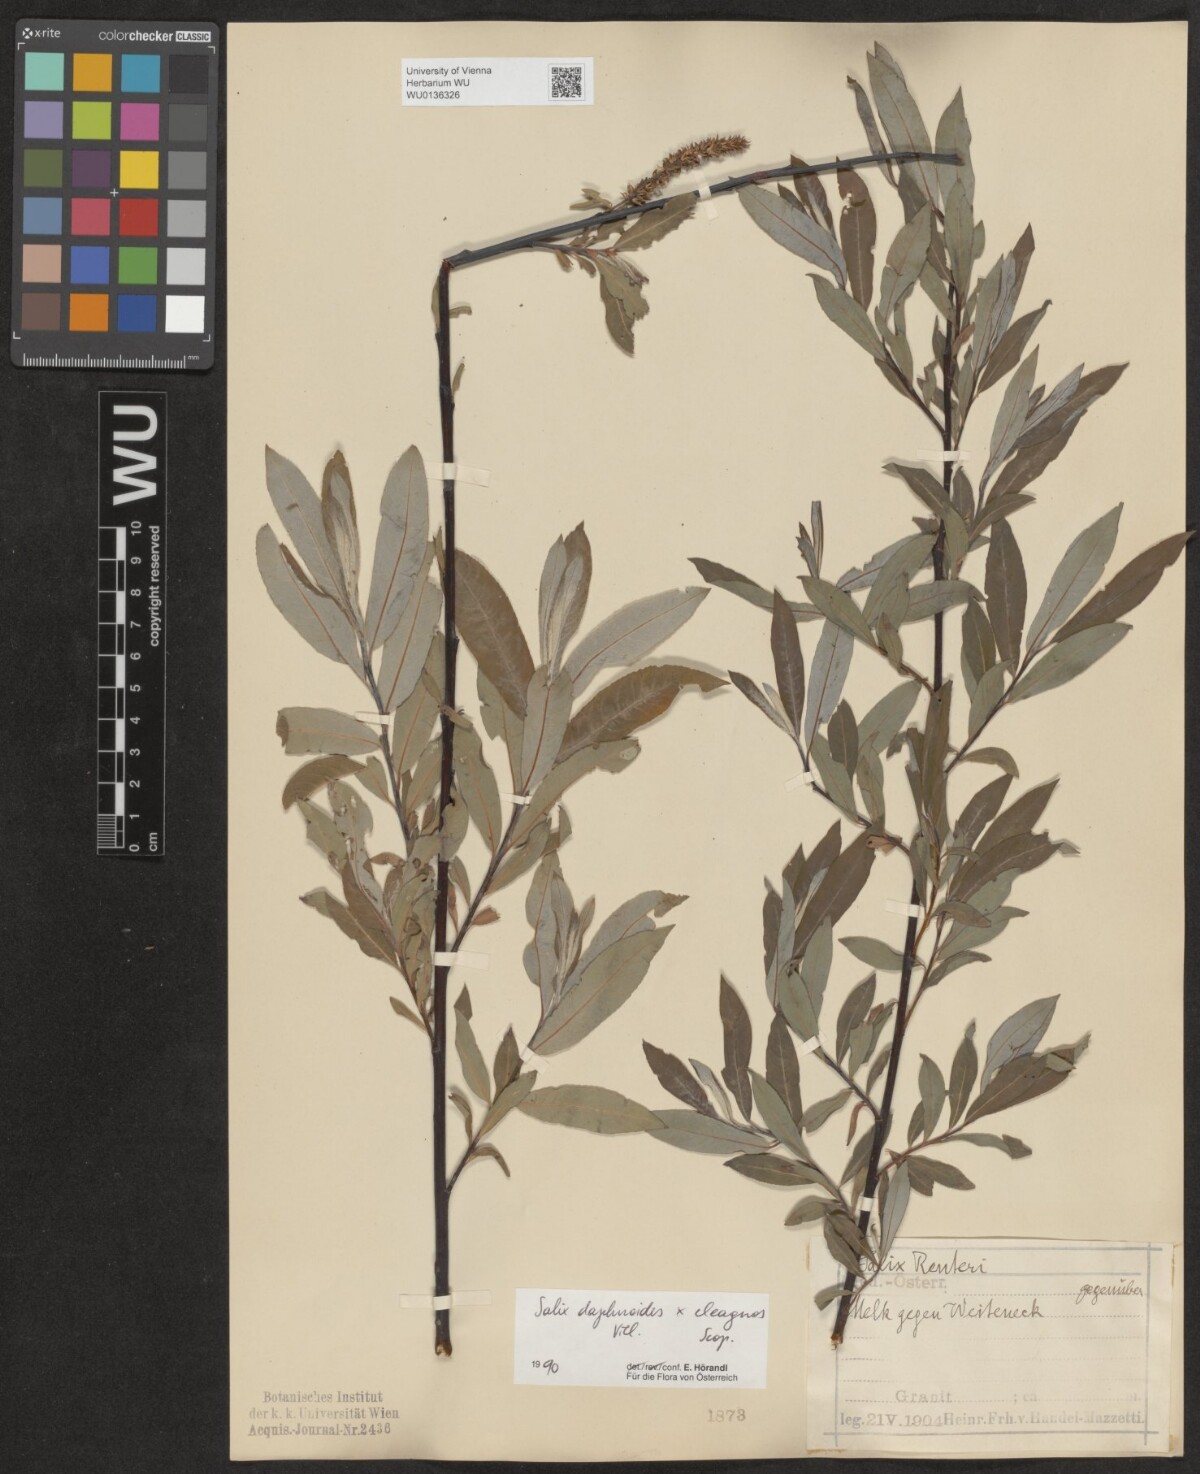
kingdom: Plantae
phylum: Tracheophyta
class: Magnoliopsida
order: Malpighiales
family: Salicaceae
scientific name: Salicaceae
